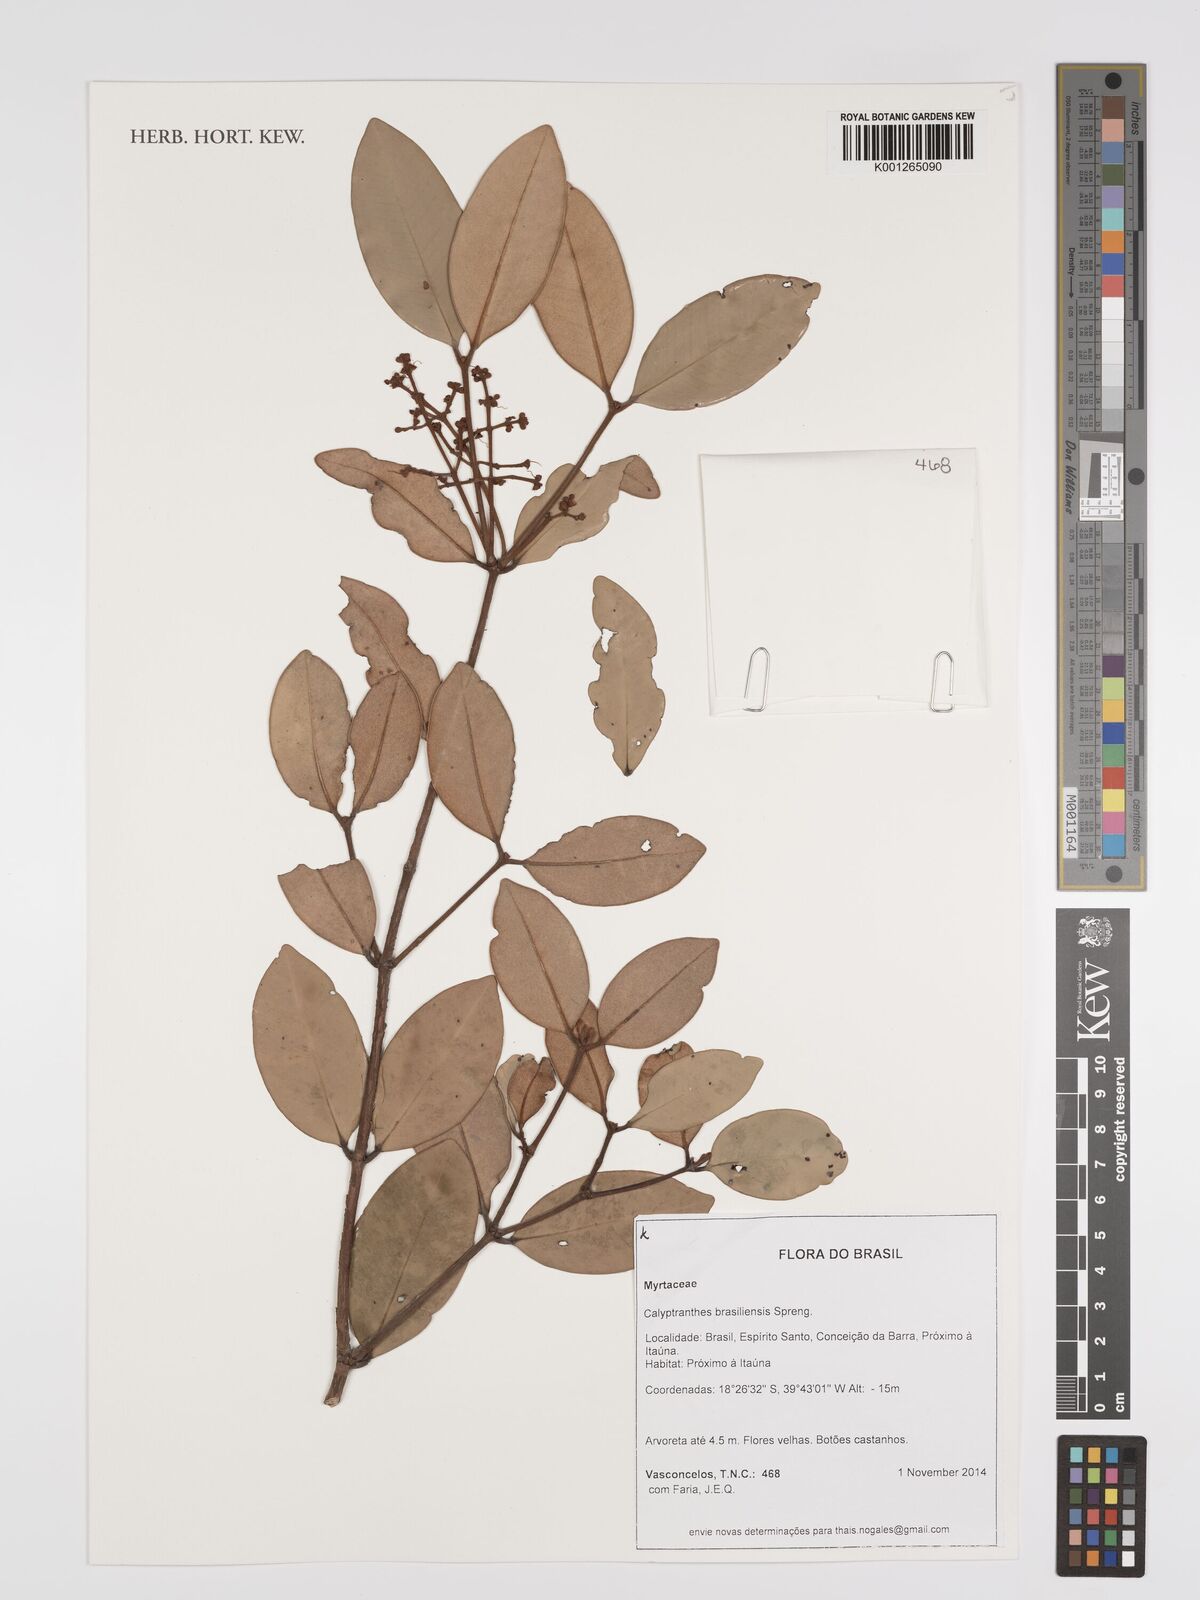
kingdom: Plantae
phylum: Tracheophyta
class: Magnoliopsida
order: Myrtales
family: Myrtaceae
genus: Myrcia
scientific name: Myrcia neobrasiliensis
